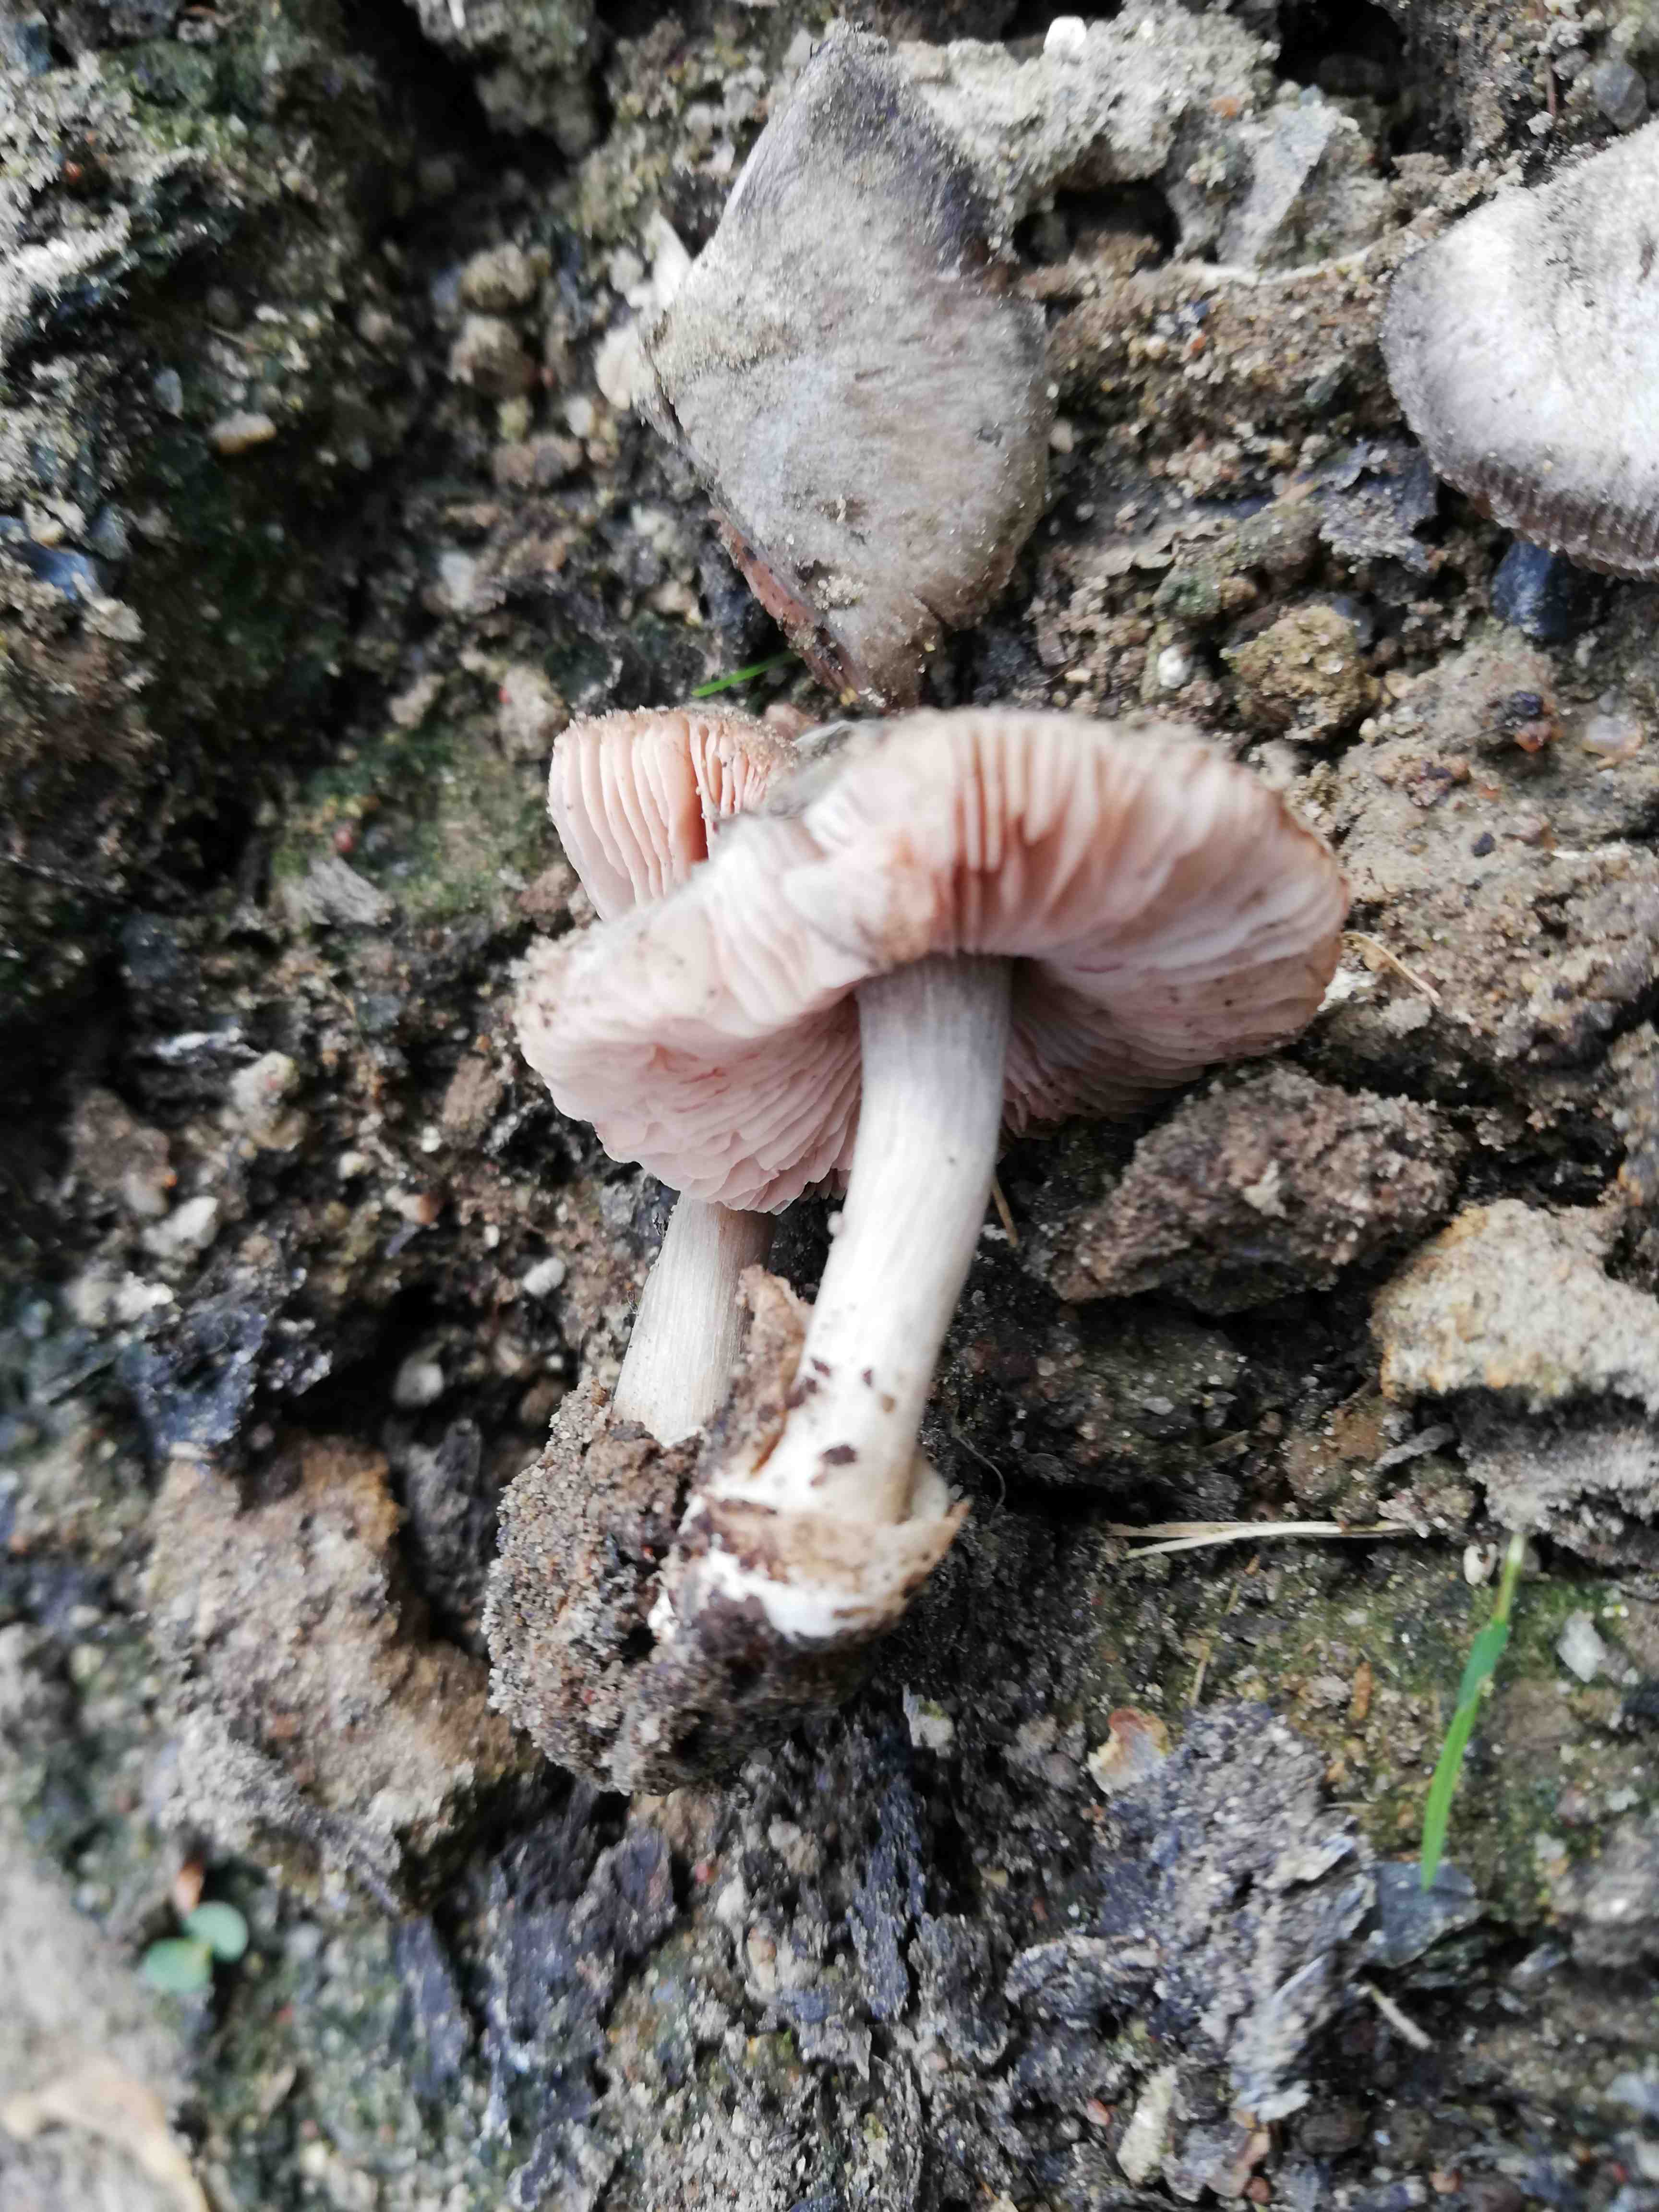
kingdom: Fungi
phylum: Basidiomycota
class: Agaricomycetes
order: Agaricales
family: Pluteaceae
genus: Volvariella
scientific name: Volvariella
